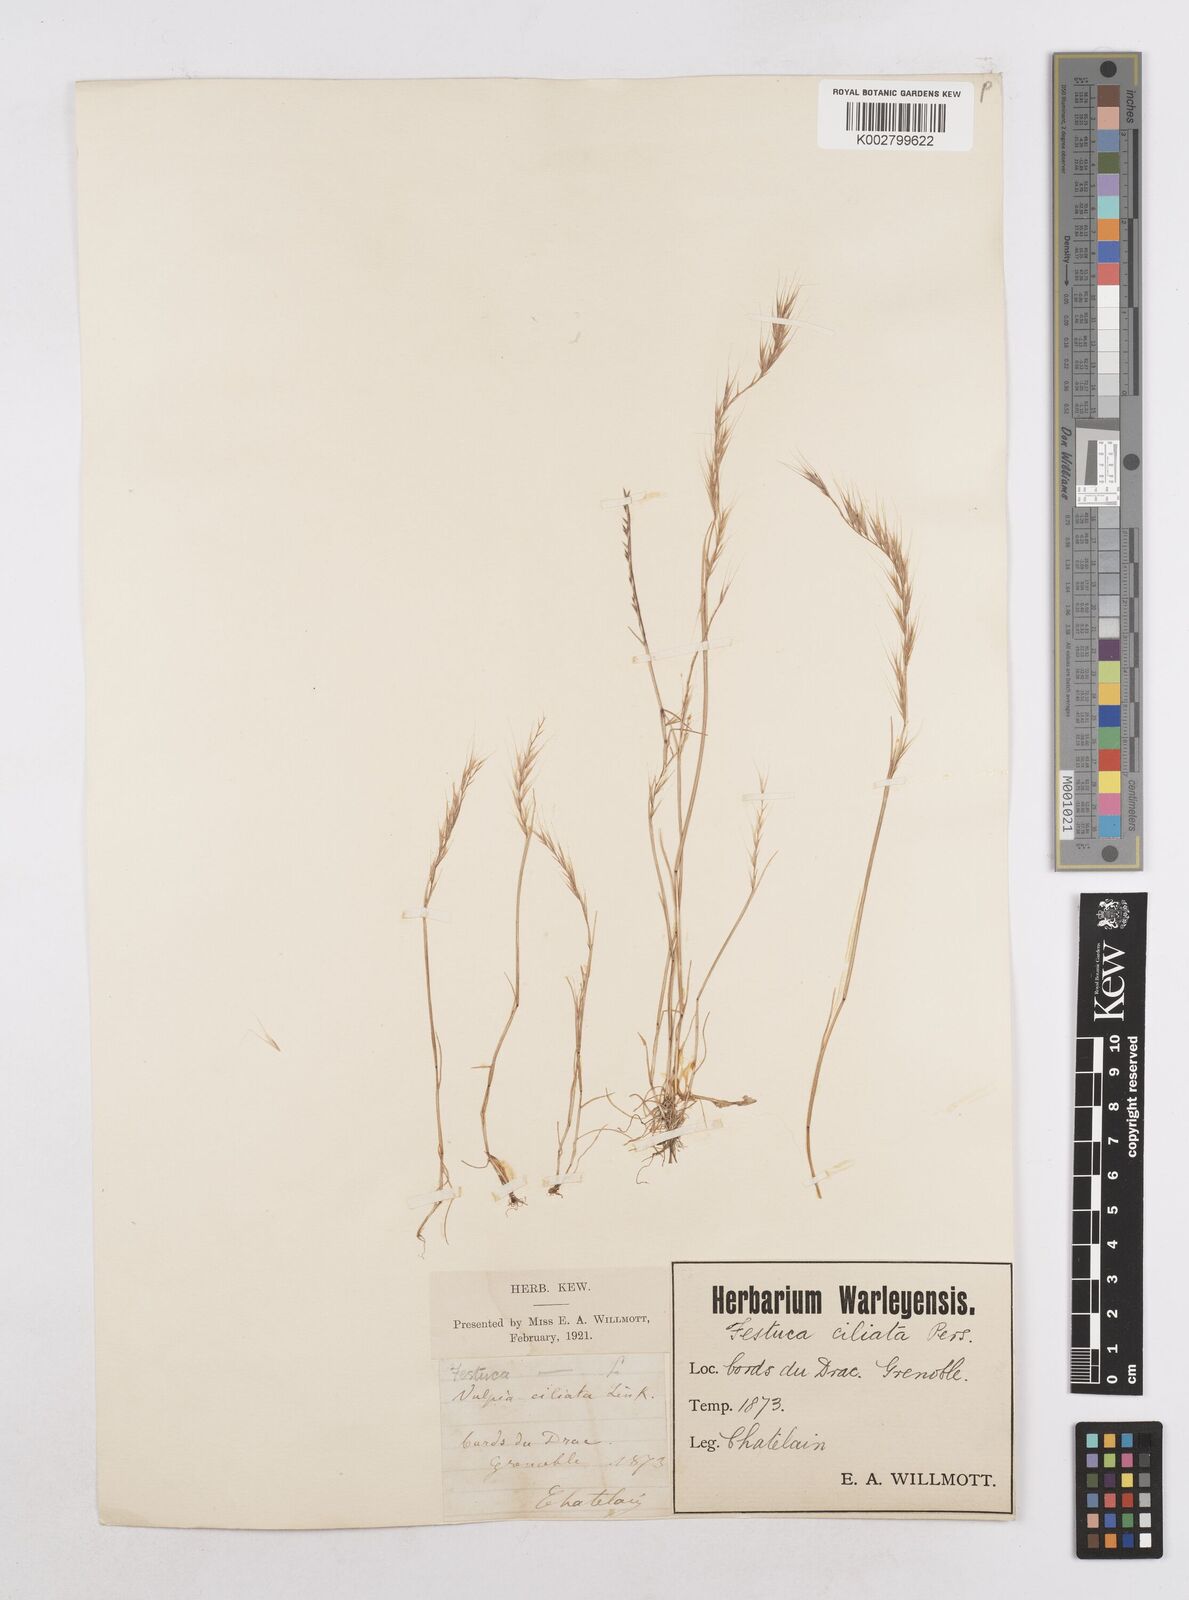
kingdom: Plantae
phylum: Tracheophyta
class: Liliopsida
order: Poales
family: Poaceae
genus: Festuca
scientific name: Festuca
